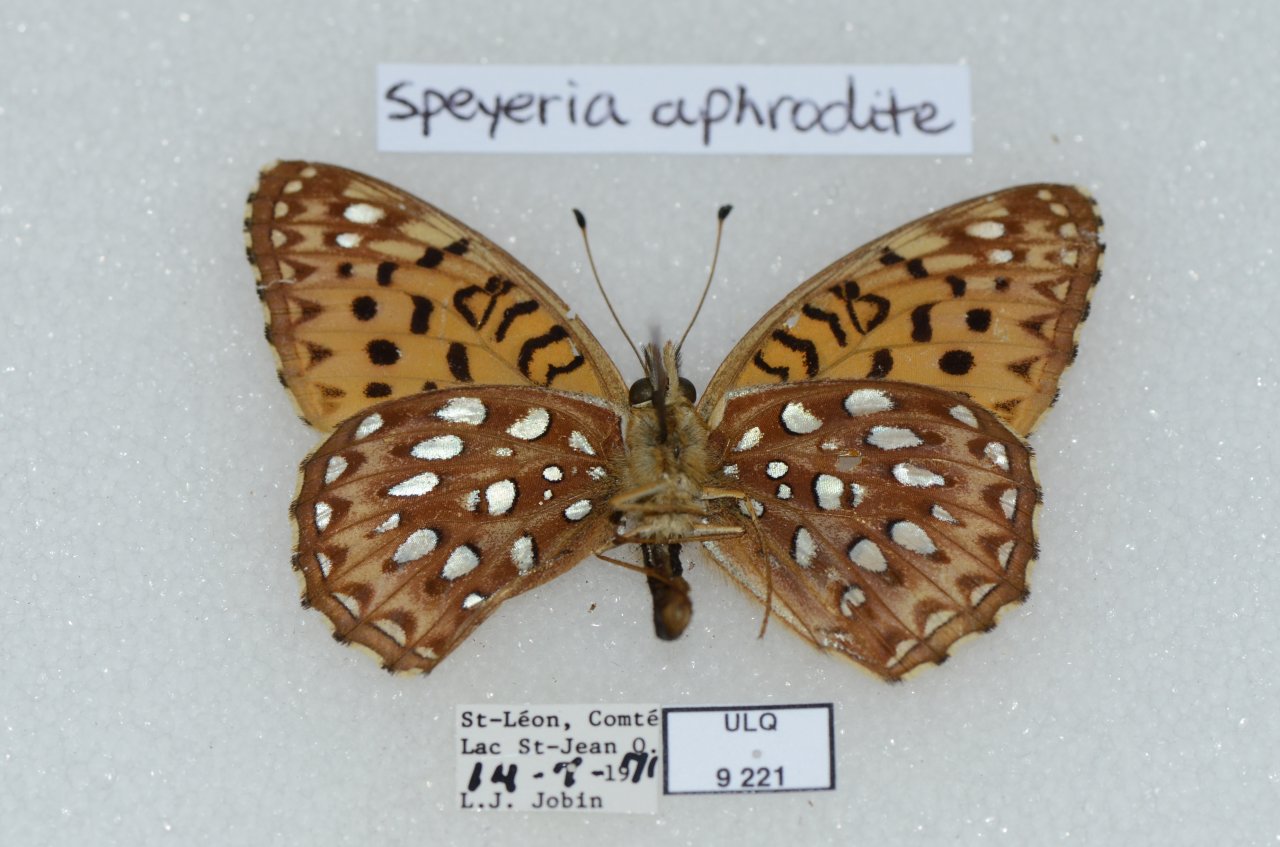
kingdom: Animalia
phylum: Arthropoda
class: Insecta
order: Lepidoptera
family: Nymphalidae
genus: Speyeria
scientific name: Speyeria aphrodite
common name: Aphrodite Fritillary
